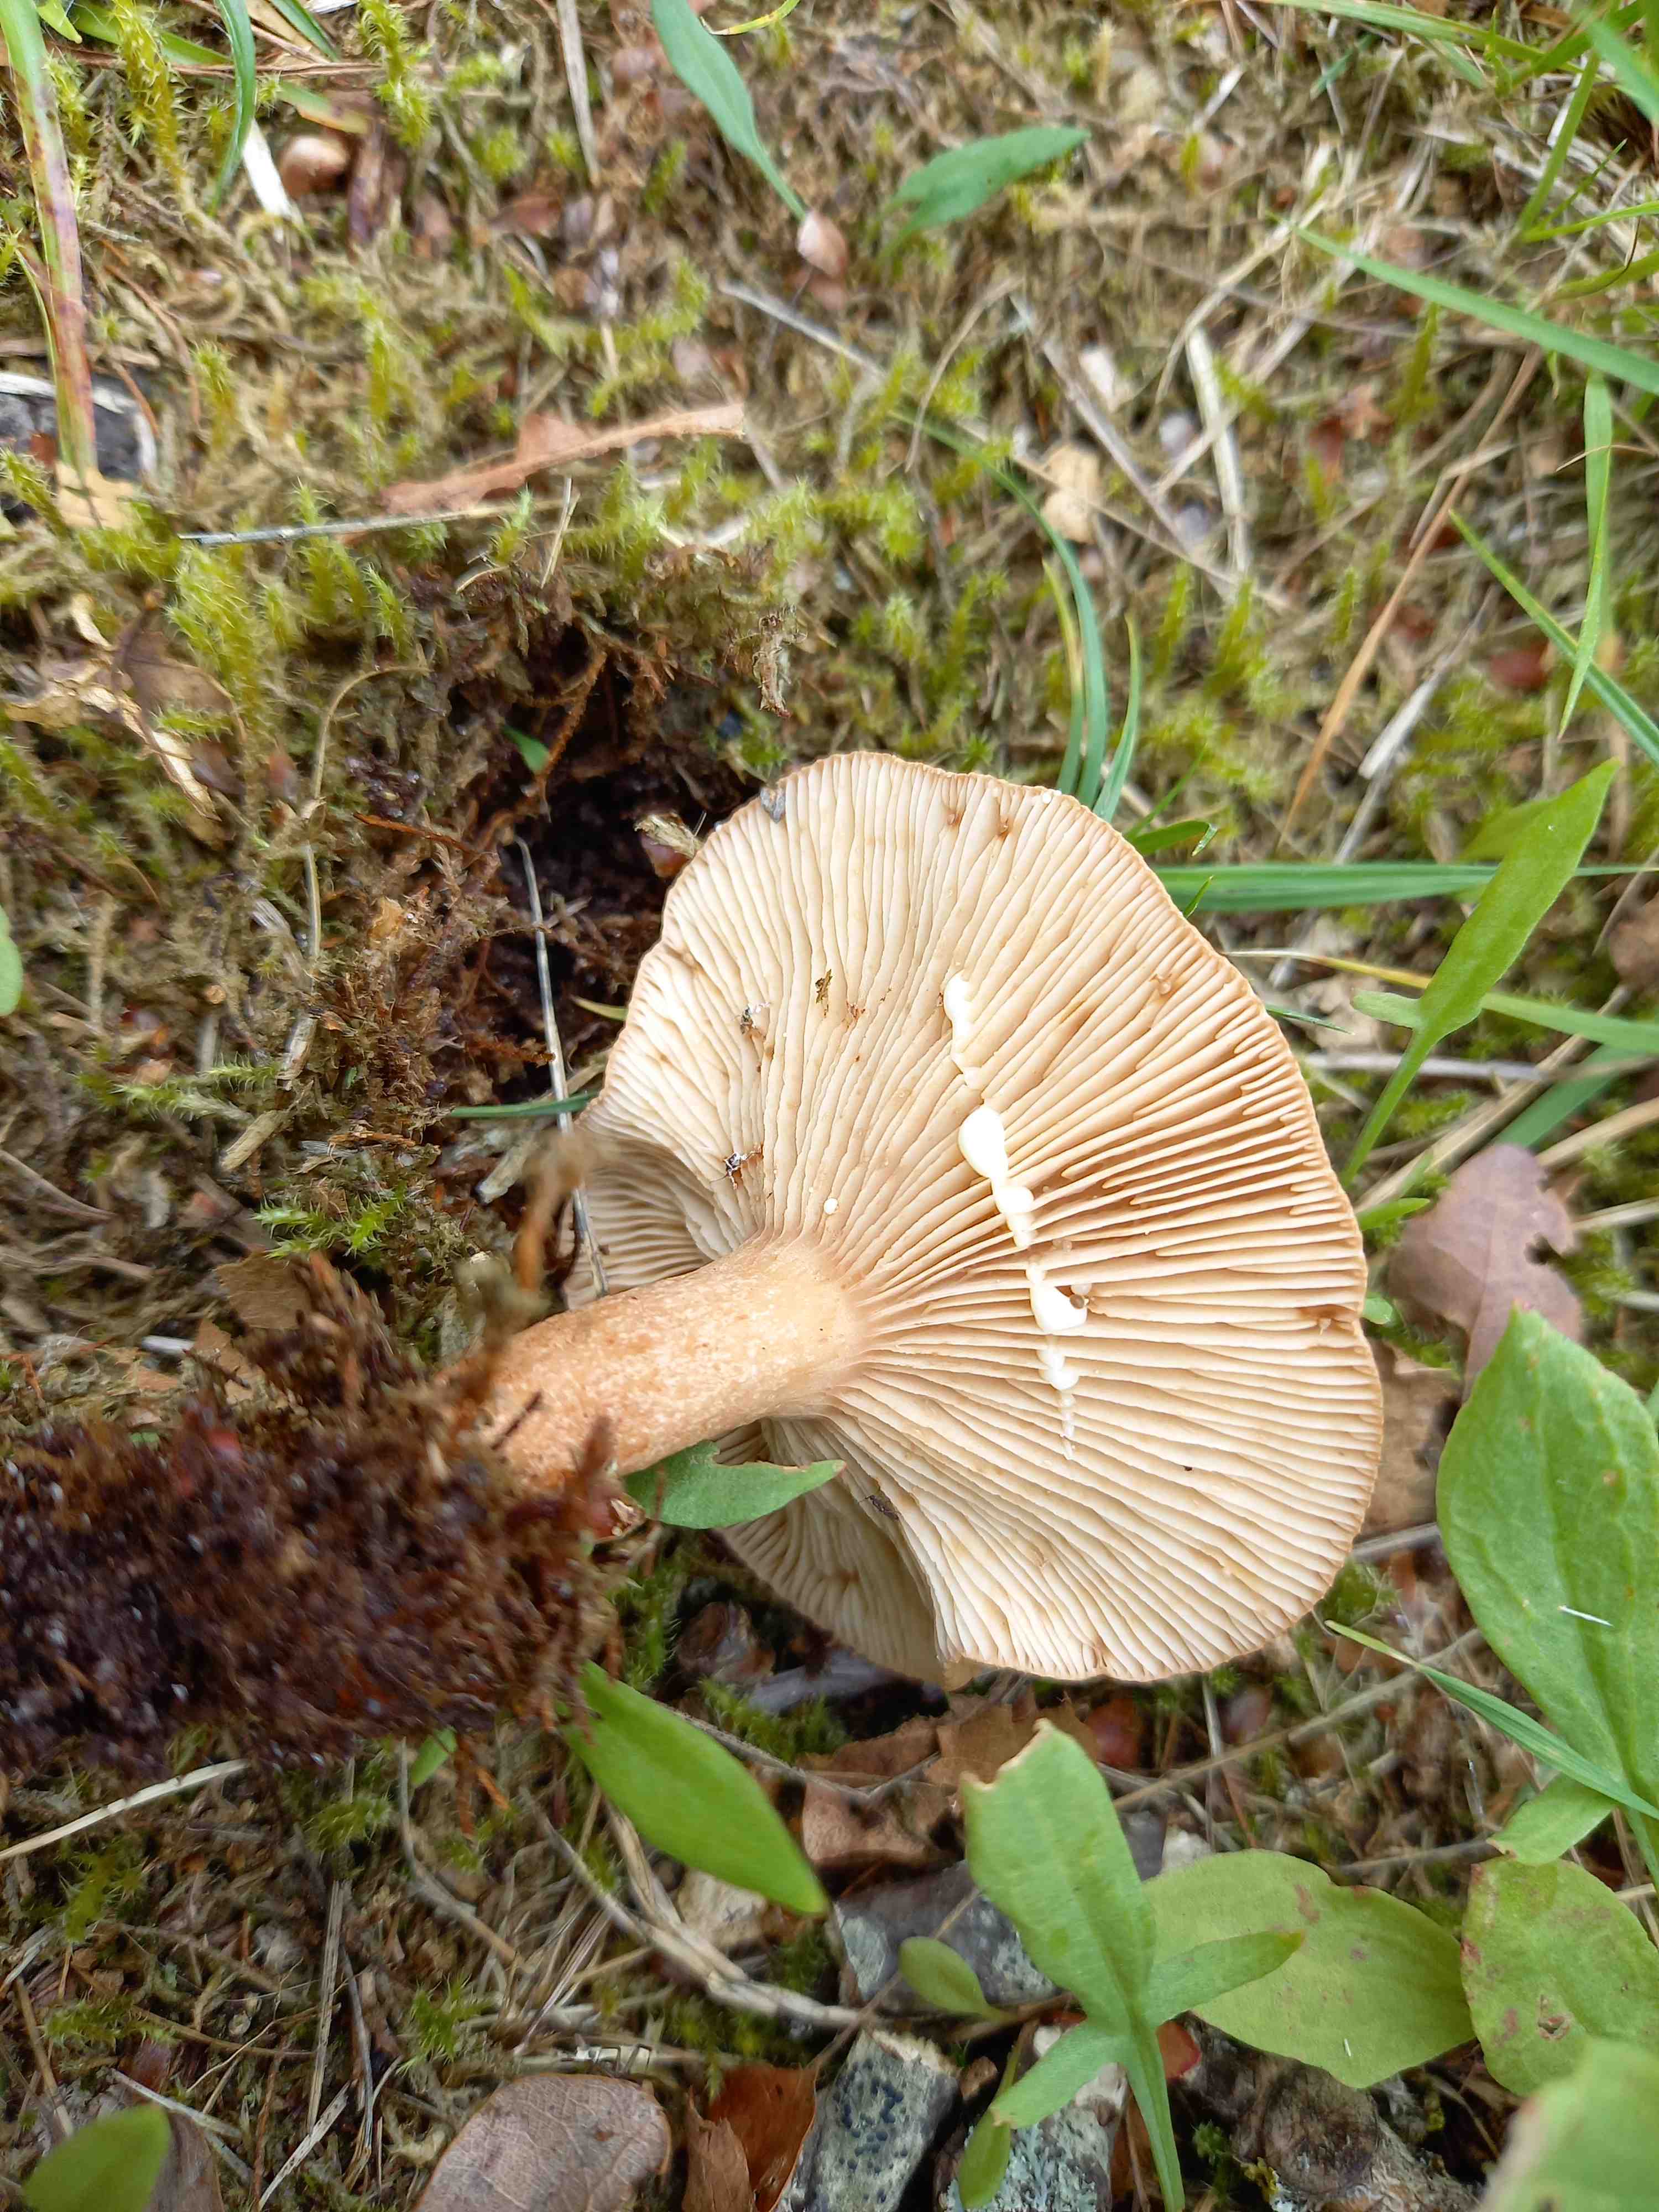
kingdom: Fungi
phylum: Basidiomycota
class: Agaricomycetes
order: Russulales
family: Russulaceae
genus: Lactarius
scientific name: Lactarius quietus
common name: ege-mælkehat
